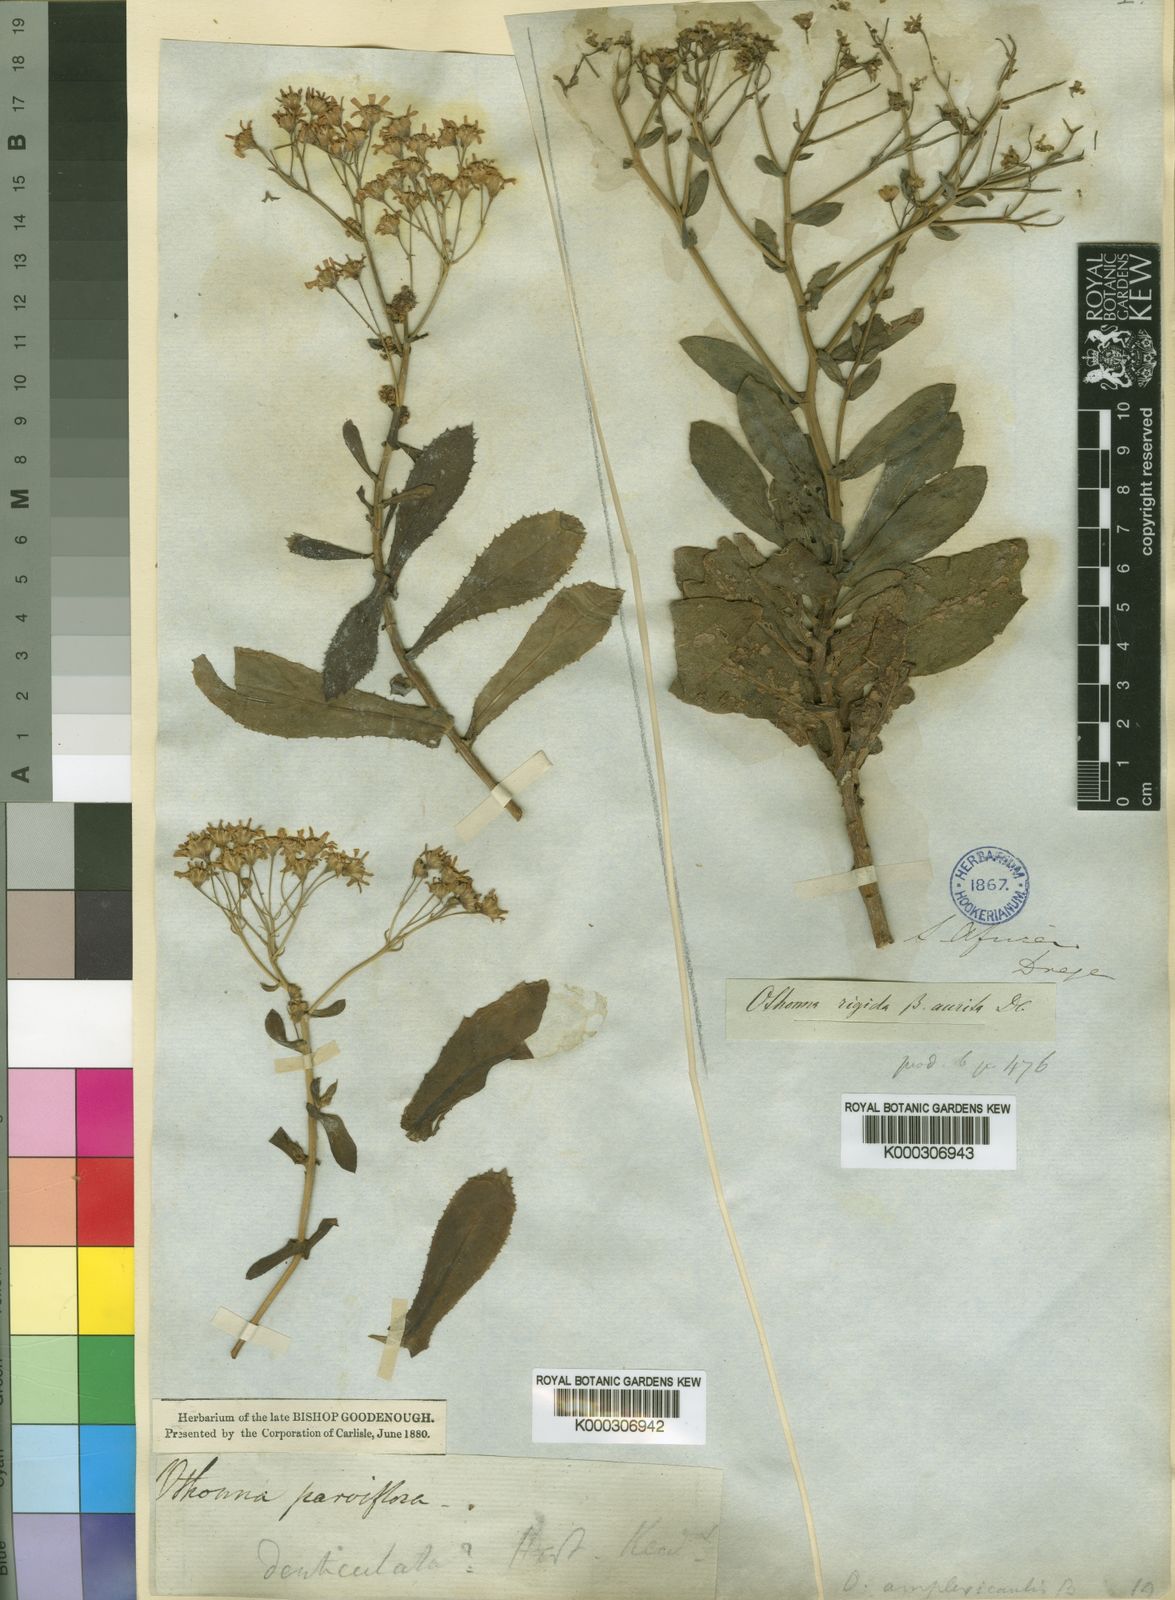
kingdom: Plantae
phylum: Tracheophyta
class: Magnoliopsida
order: Asterales
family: Asteraceae
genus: Othonna
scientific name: Othonna parviflora
